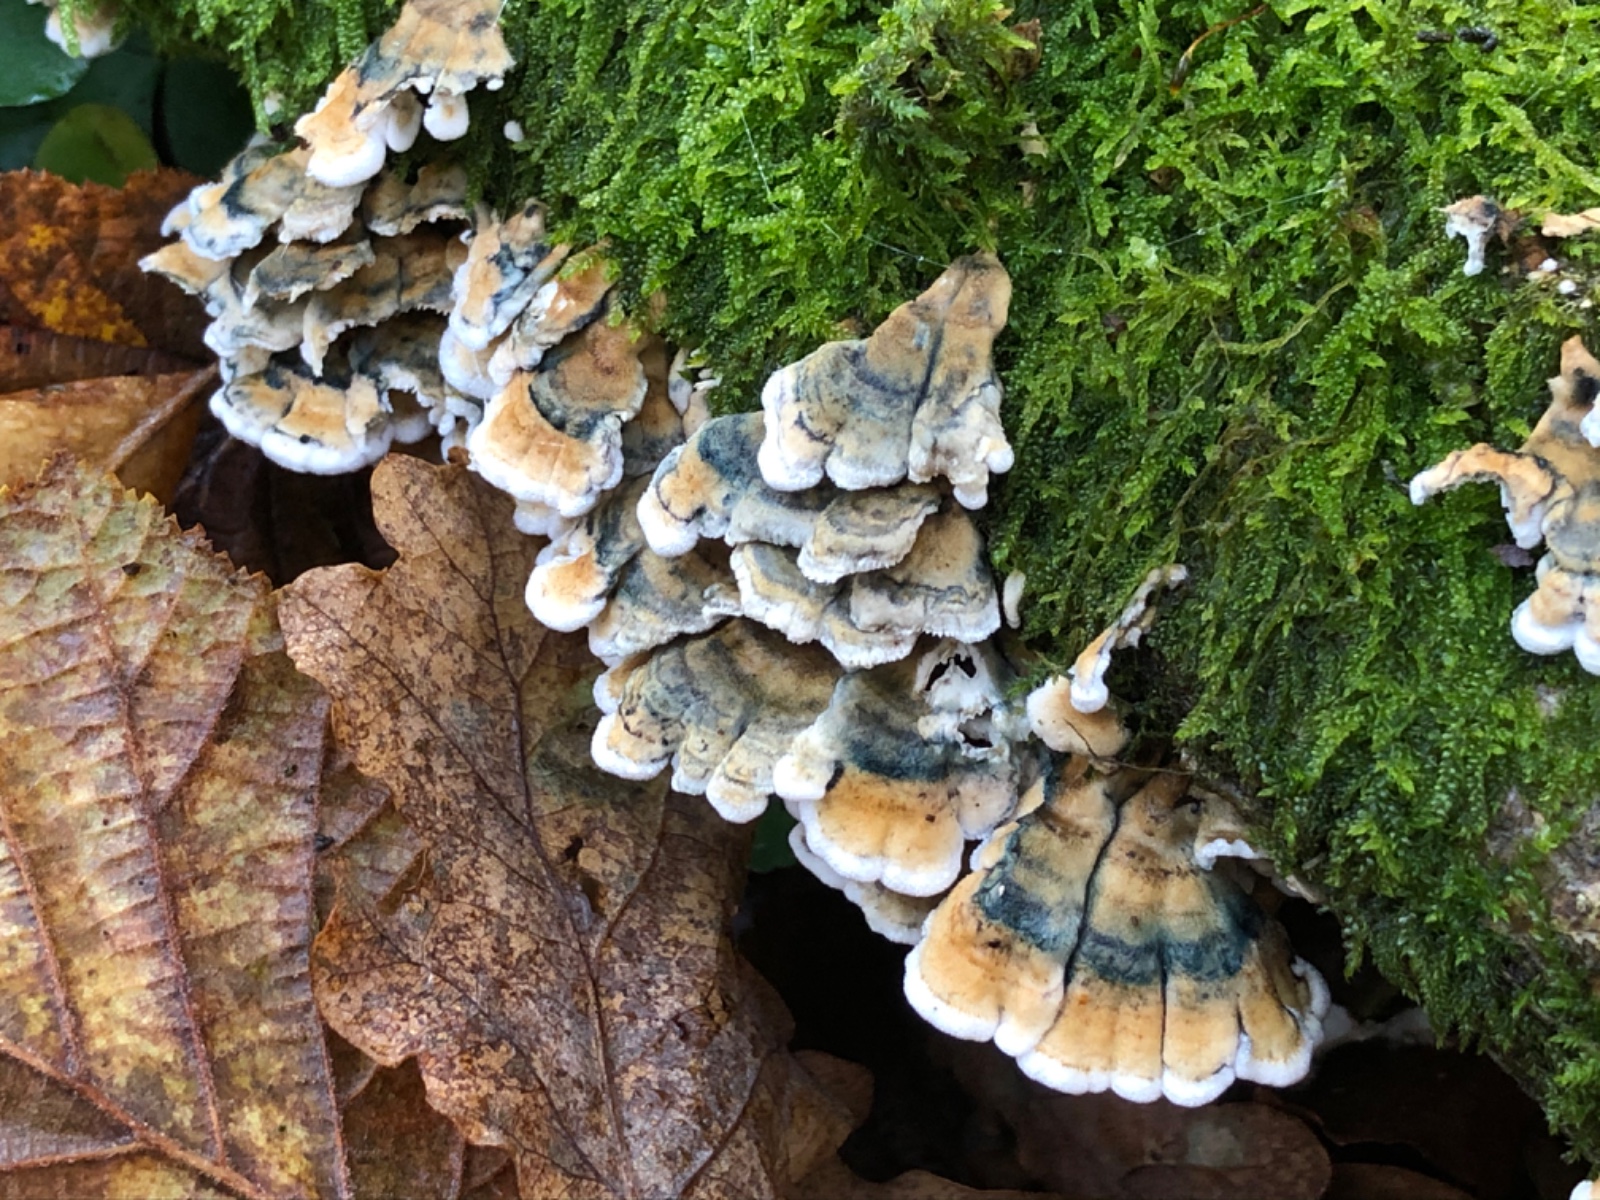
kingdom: Fungi
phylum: Basidiomycota
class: Agaricomycetes
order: Amylocorticiales
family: Amylocorticiaceae
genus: Plicaturopsis
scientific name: Plicaturopsis crispa
